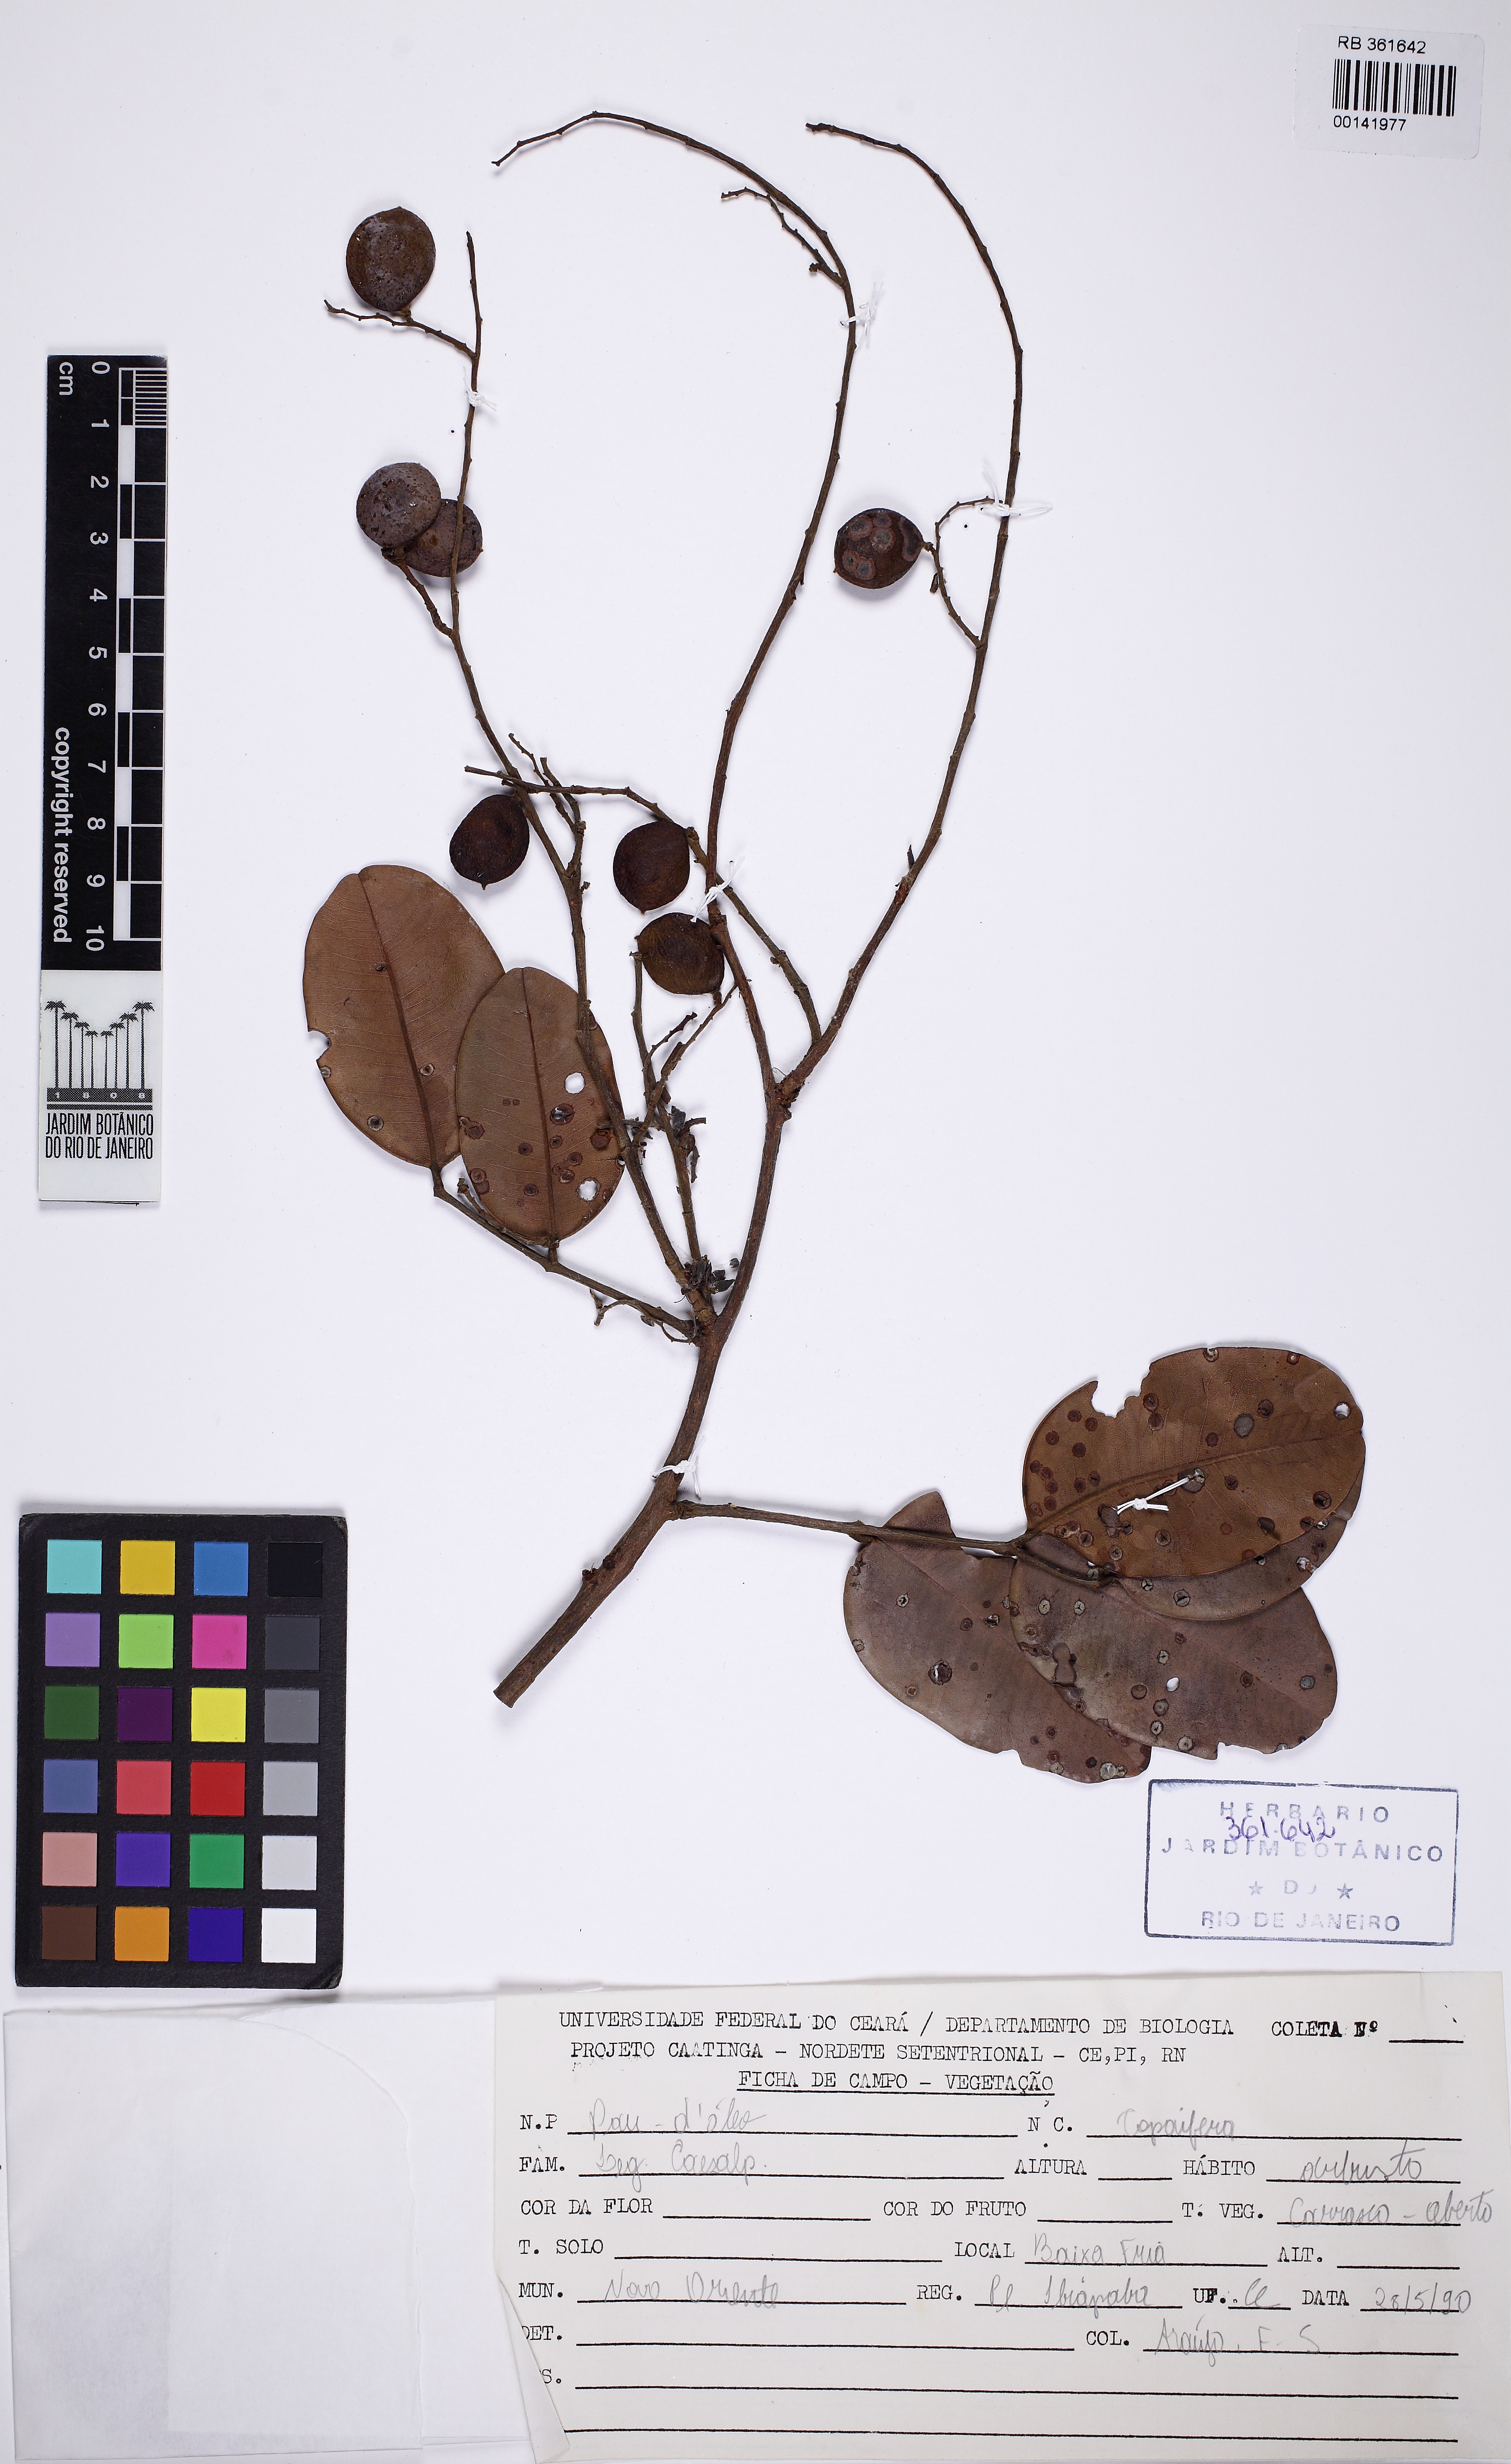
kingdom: Plantae
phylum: Tracheophyta
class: Magnoliopsida
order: Fabales
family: Fabaceae
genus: Copaifera
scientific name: Copaifera
